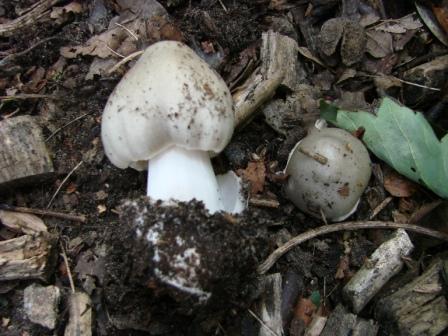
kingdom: Fungi
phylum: Basidiomycota
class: Agaricomycetes
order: Agaricales
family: Pluteaceae
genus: Volvopluteus
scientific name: Volvopluteus gloiocephalus
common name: høj posesvamp
